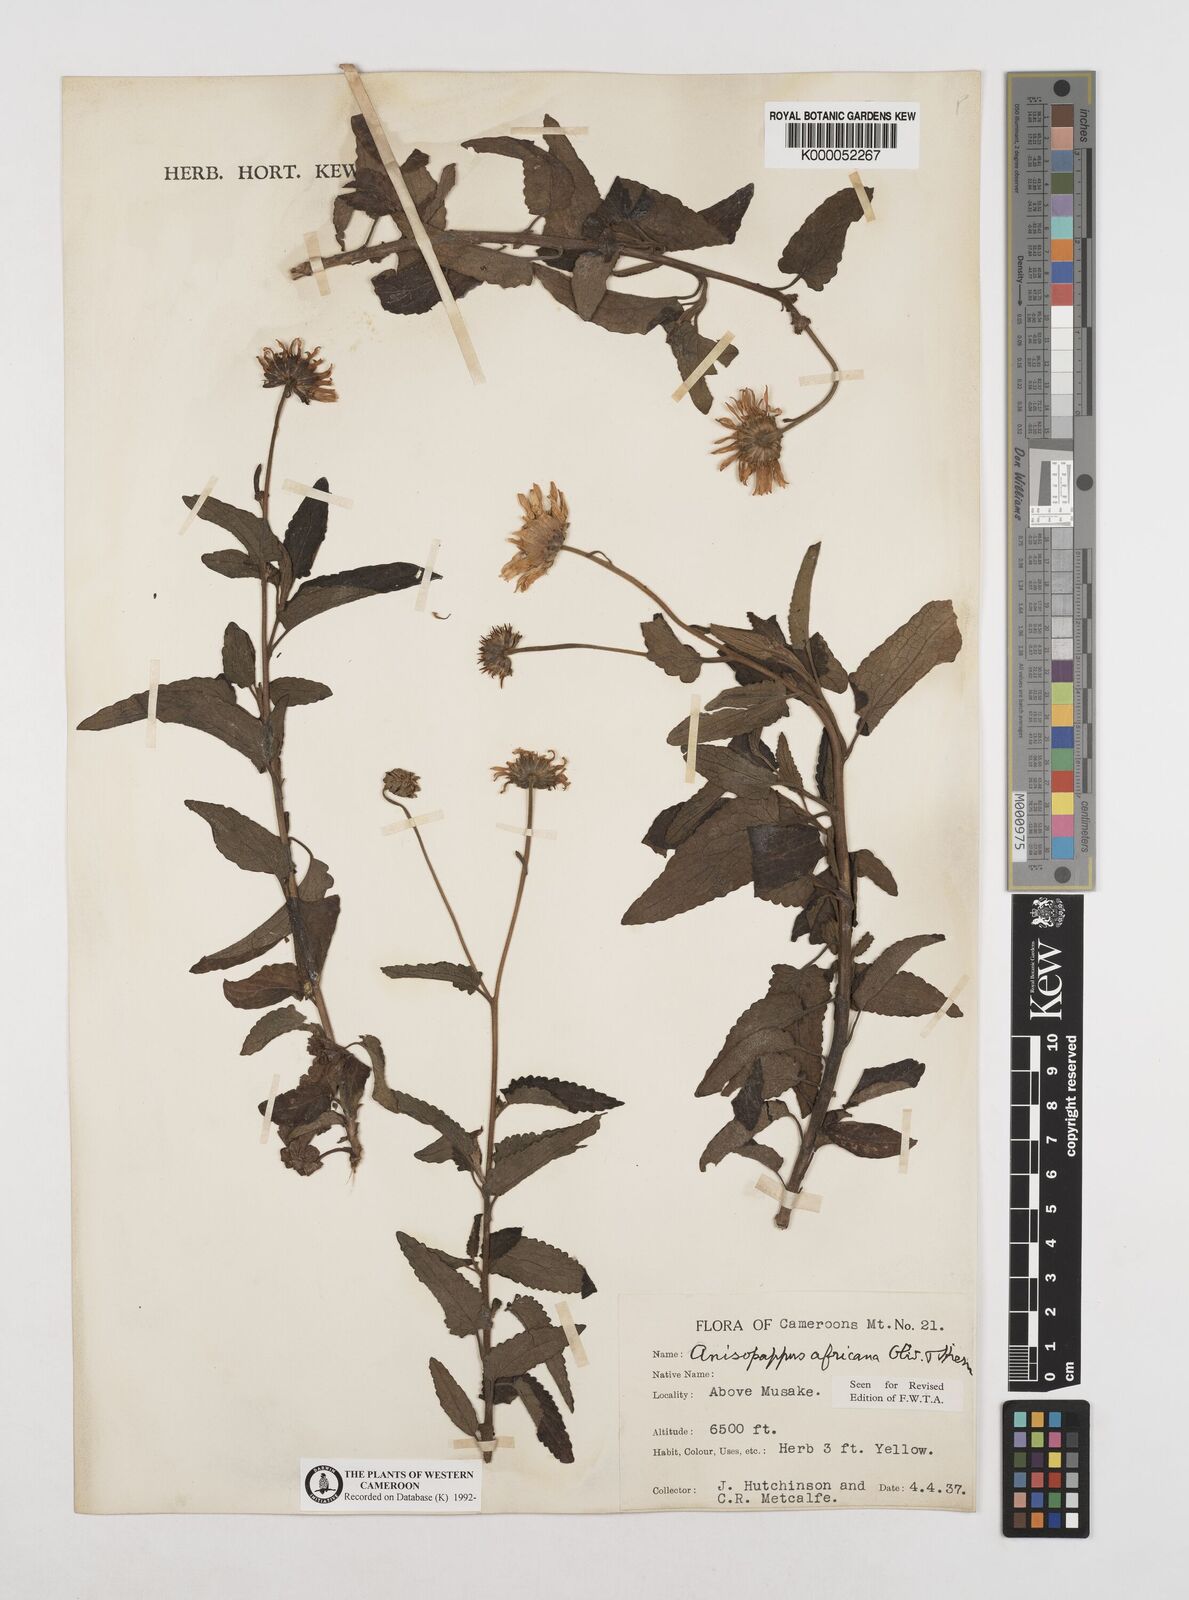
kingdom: Plantae
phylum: Tracheophyta
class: Magnoliopsida
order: Asterales
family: Asteraceae
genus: Anisopappus
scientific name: Anisopappus chinensis
